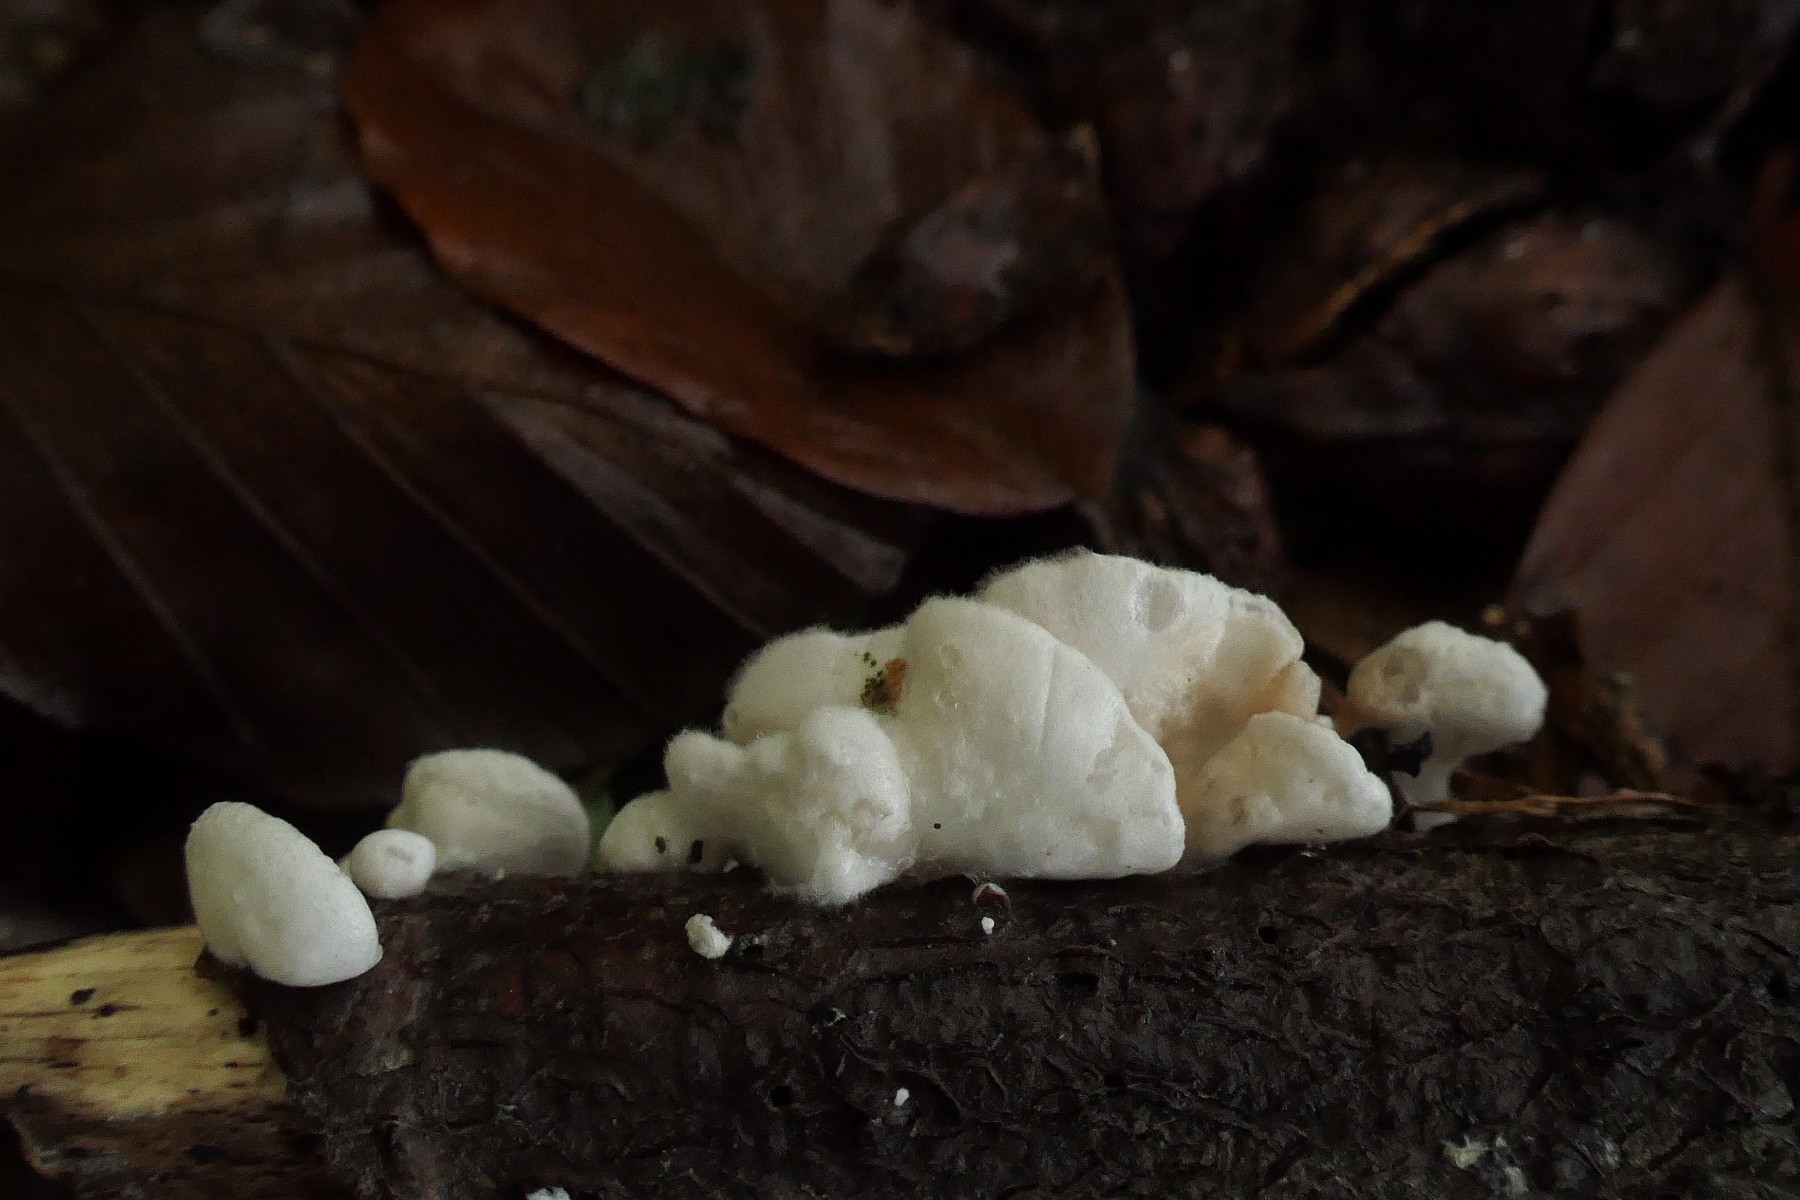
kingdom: Fungi
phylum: Basidiomycota
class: Agaricomycetes
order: Agaricales
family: Crepidotaceae
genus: Crepidotus
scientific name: Crepidotus variabilis
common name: forskelligformet muslingesvamp
